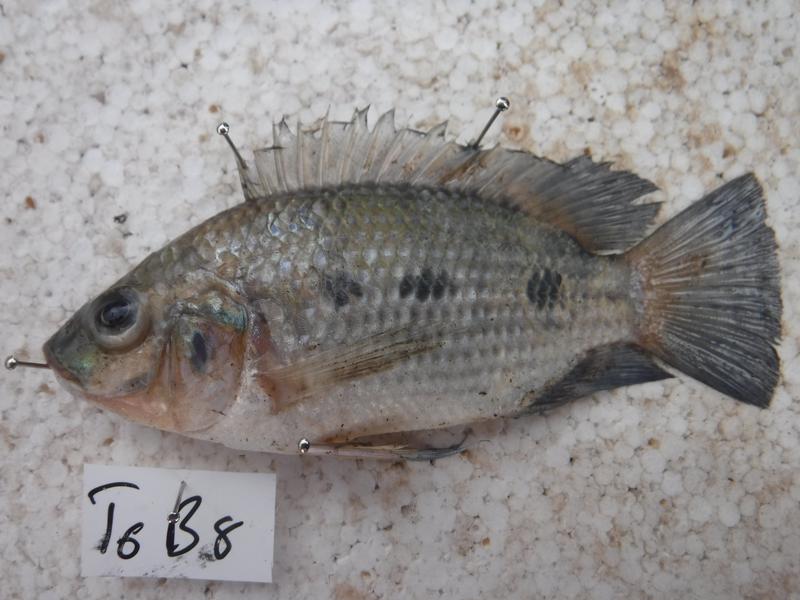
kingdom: Animalia
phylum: Chordata
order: Perciformes
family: Cichlidae
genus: Oreochromis
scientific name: Oreochromis urolepis
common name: Wami tilapia
